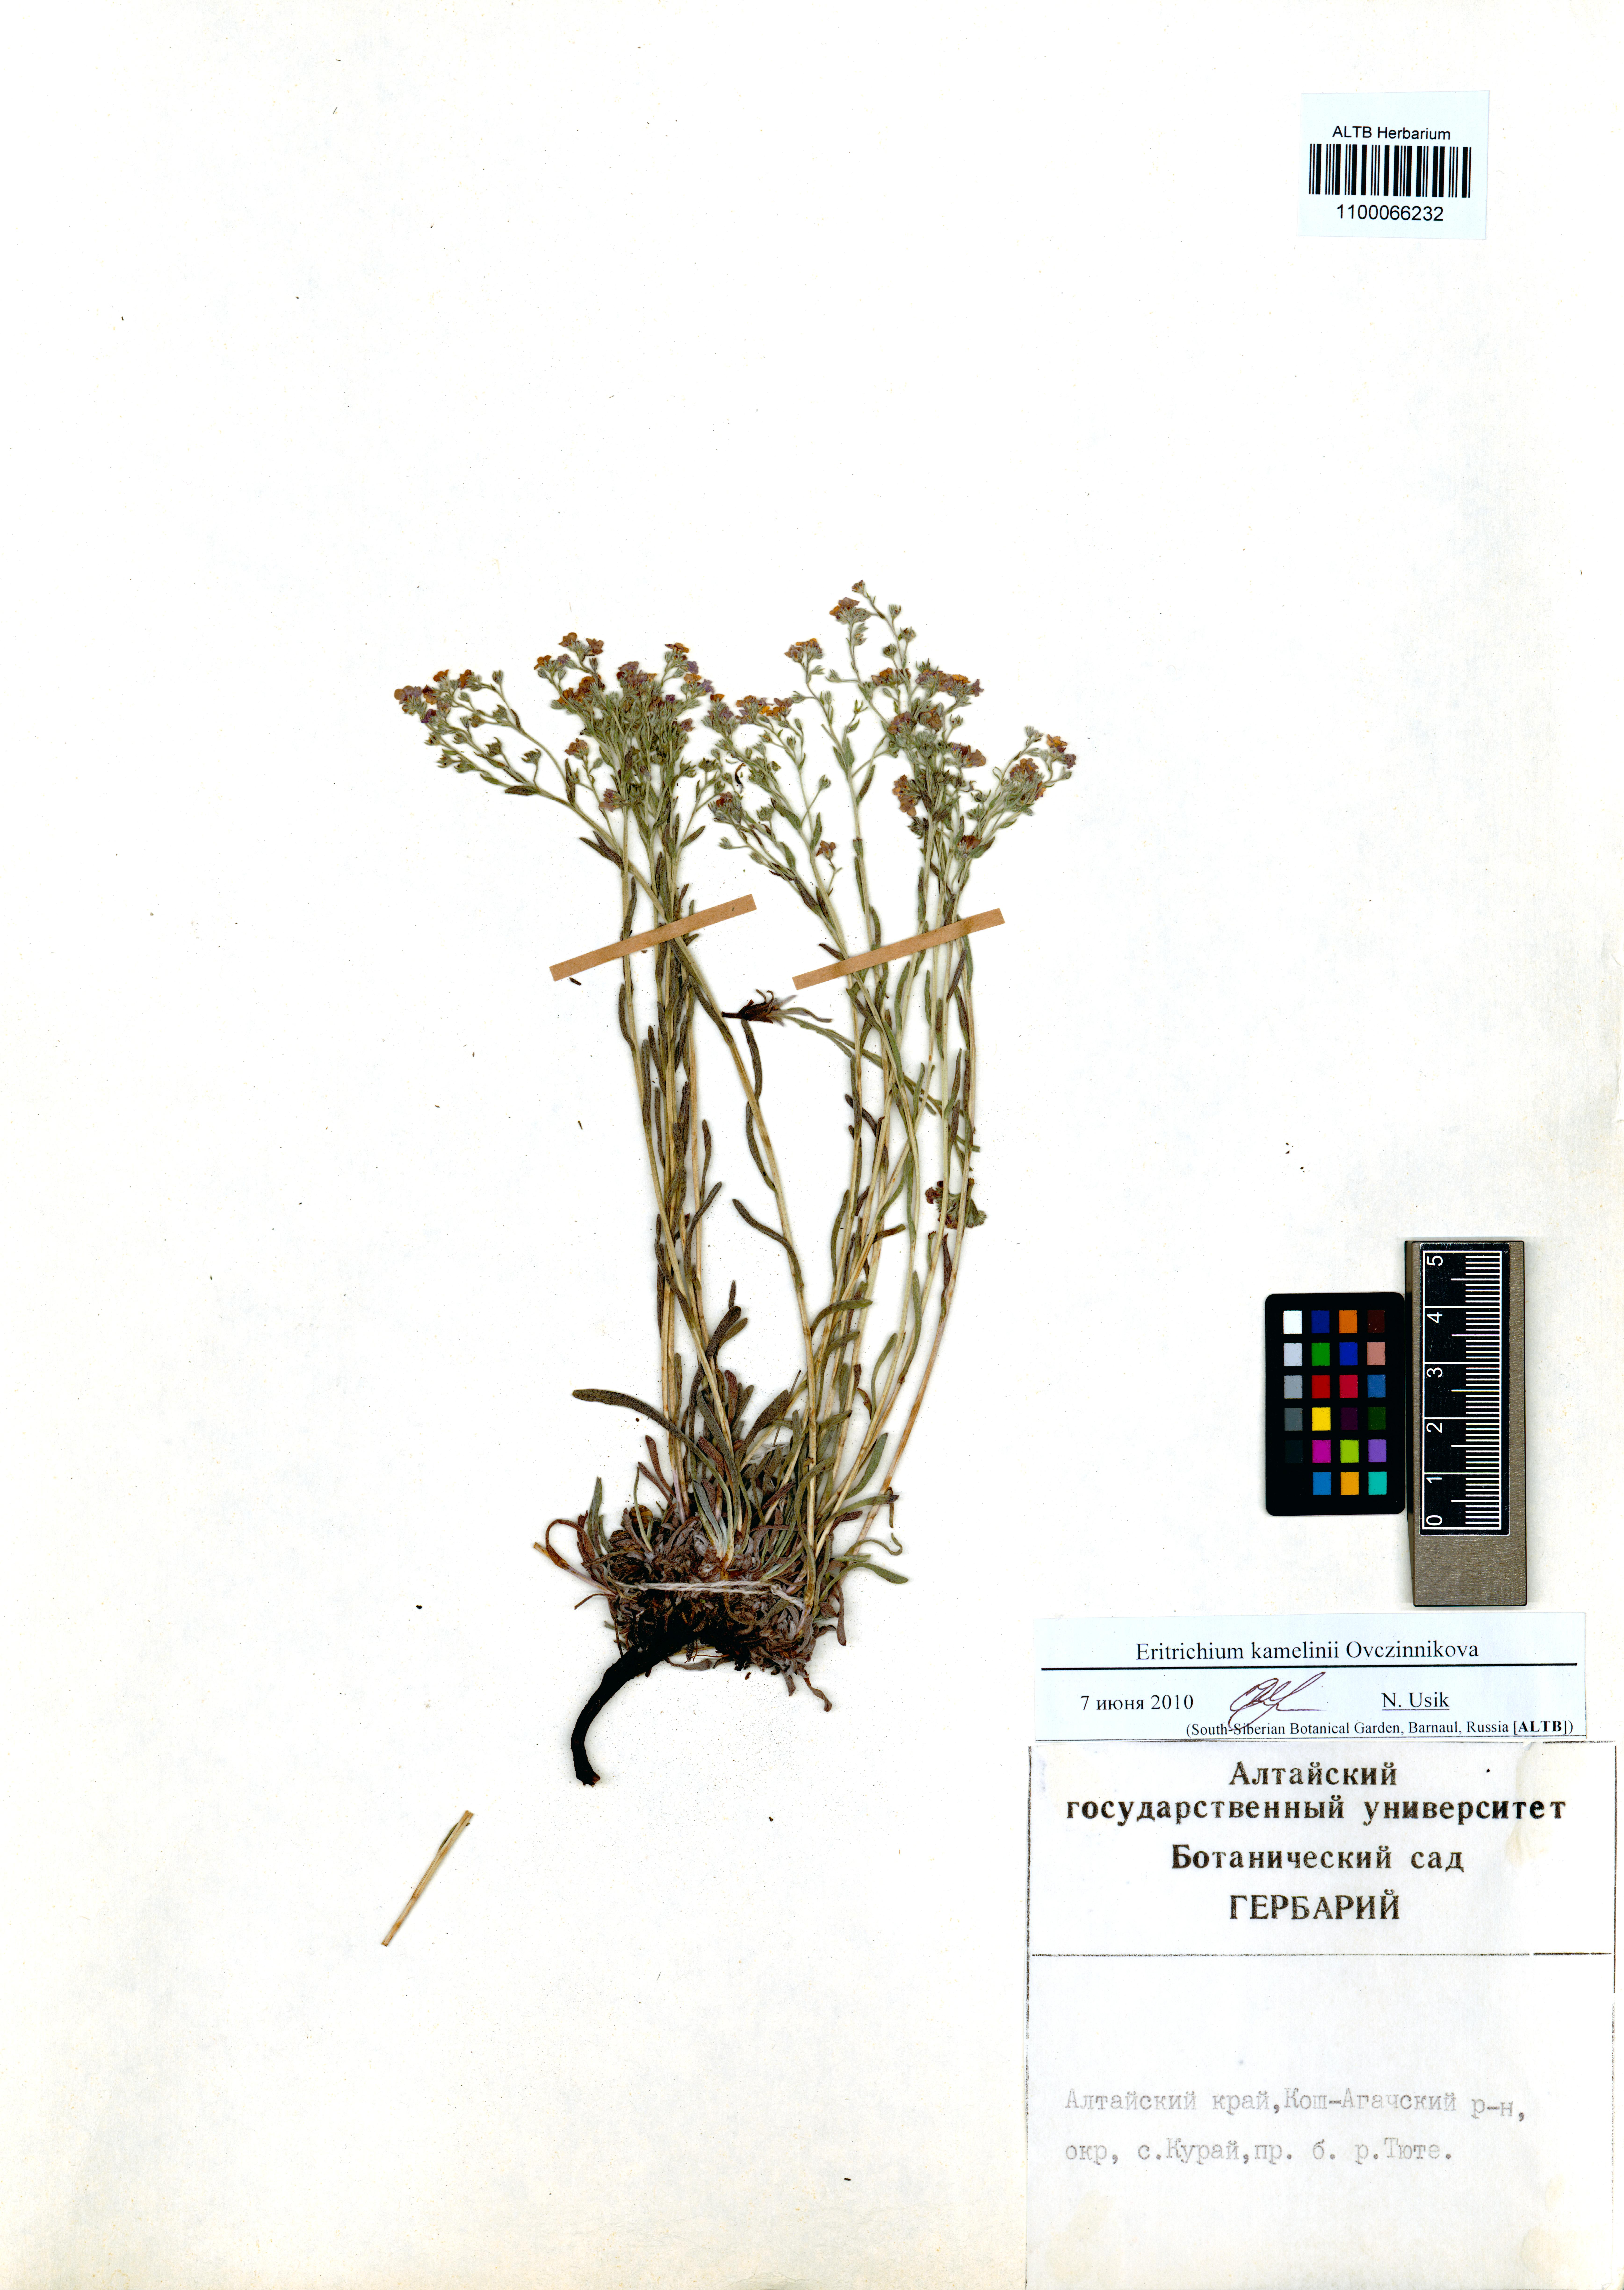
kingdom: Plantae
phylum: Tracheophyta
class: Magnoliopsida
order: Boraginales
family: Boraginaceae
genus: Eritrichium
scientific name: Eritrichium kamelinii
